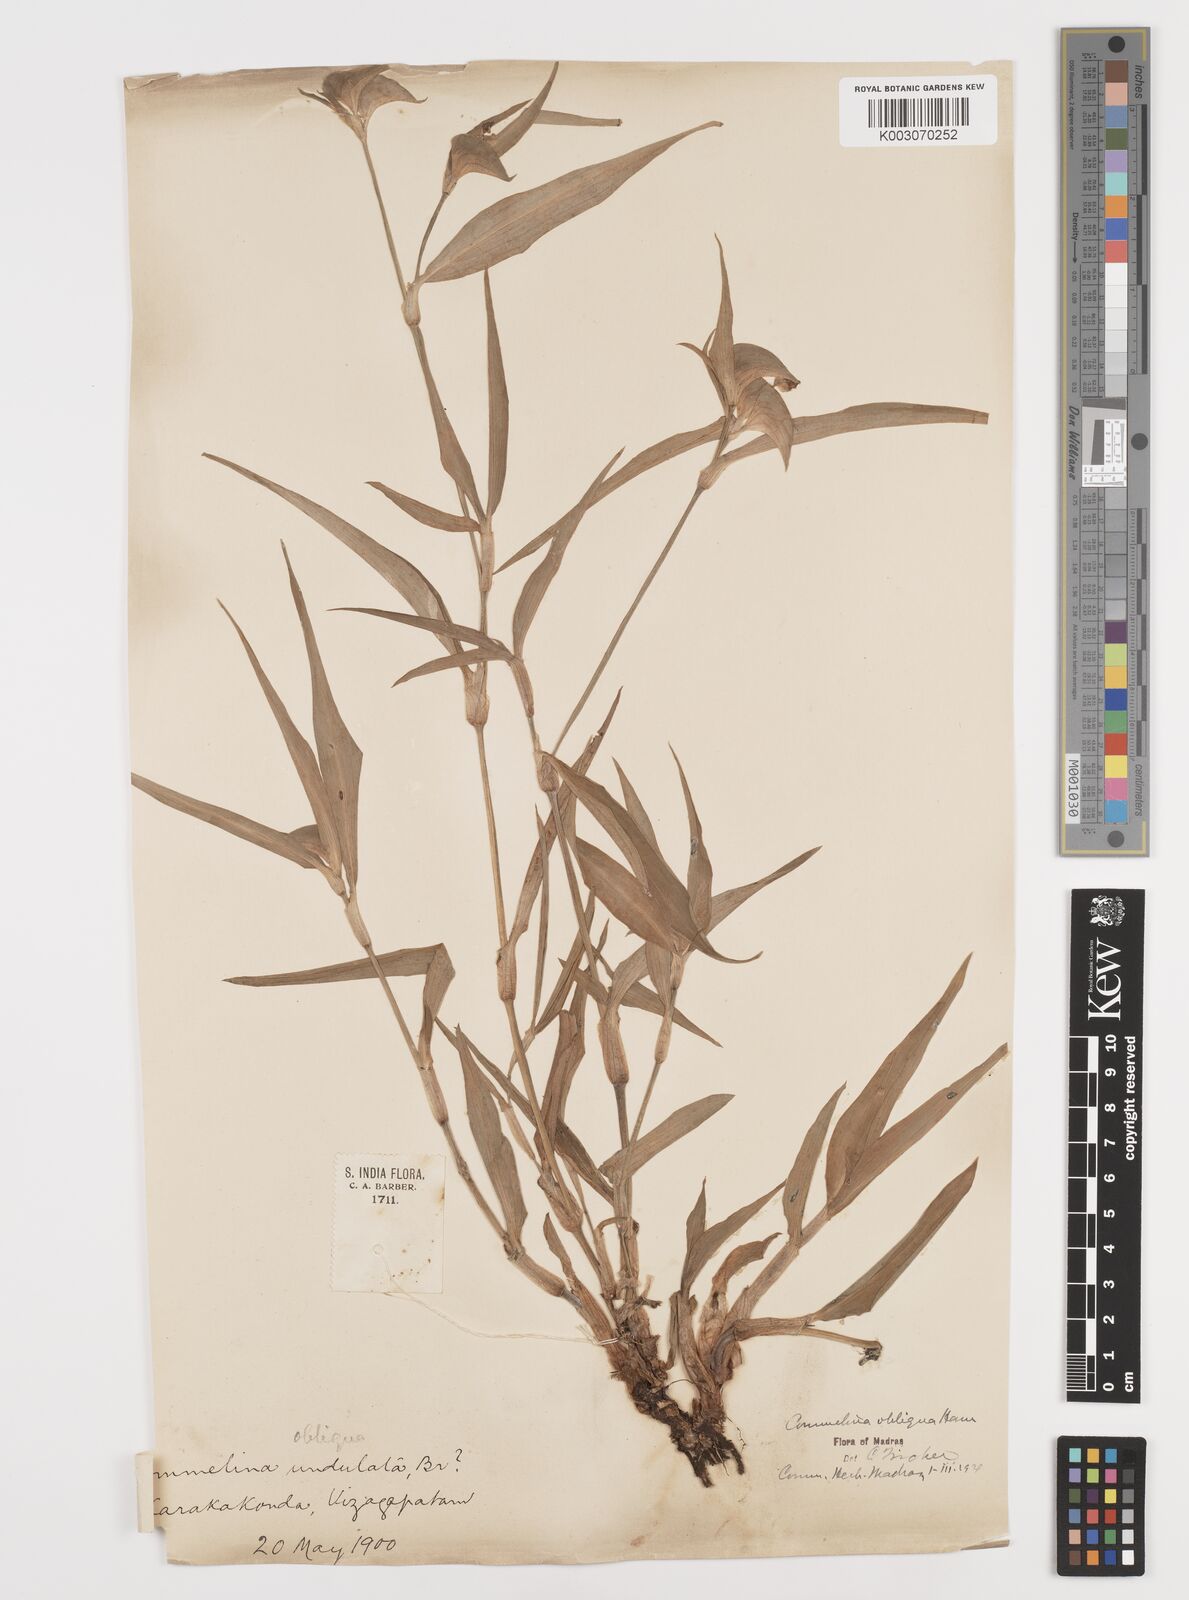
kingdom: Plantae
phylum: Tracheophyta
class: Liliopsida
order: Commelinales
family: Commelinaceae
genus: Commelina
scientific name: Commelina paludosa
